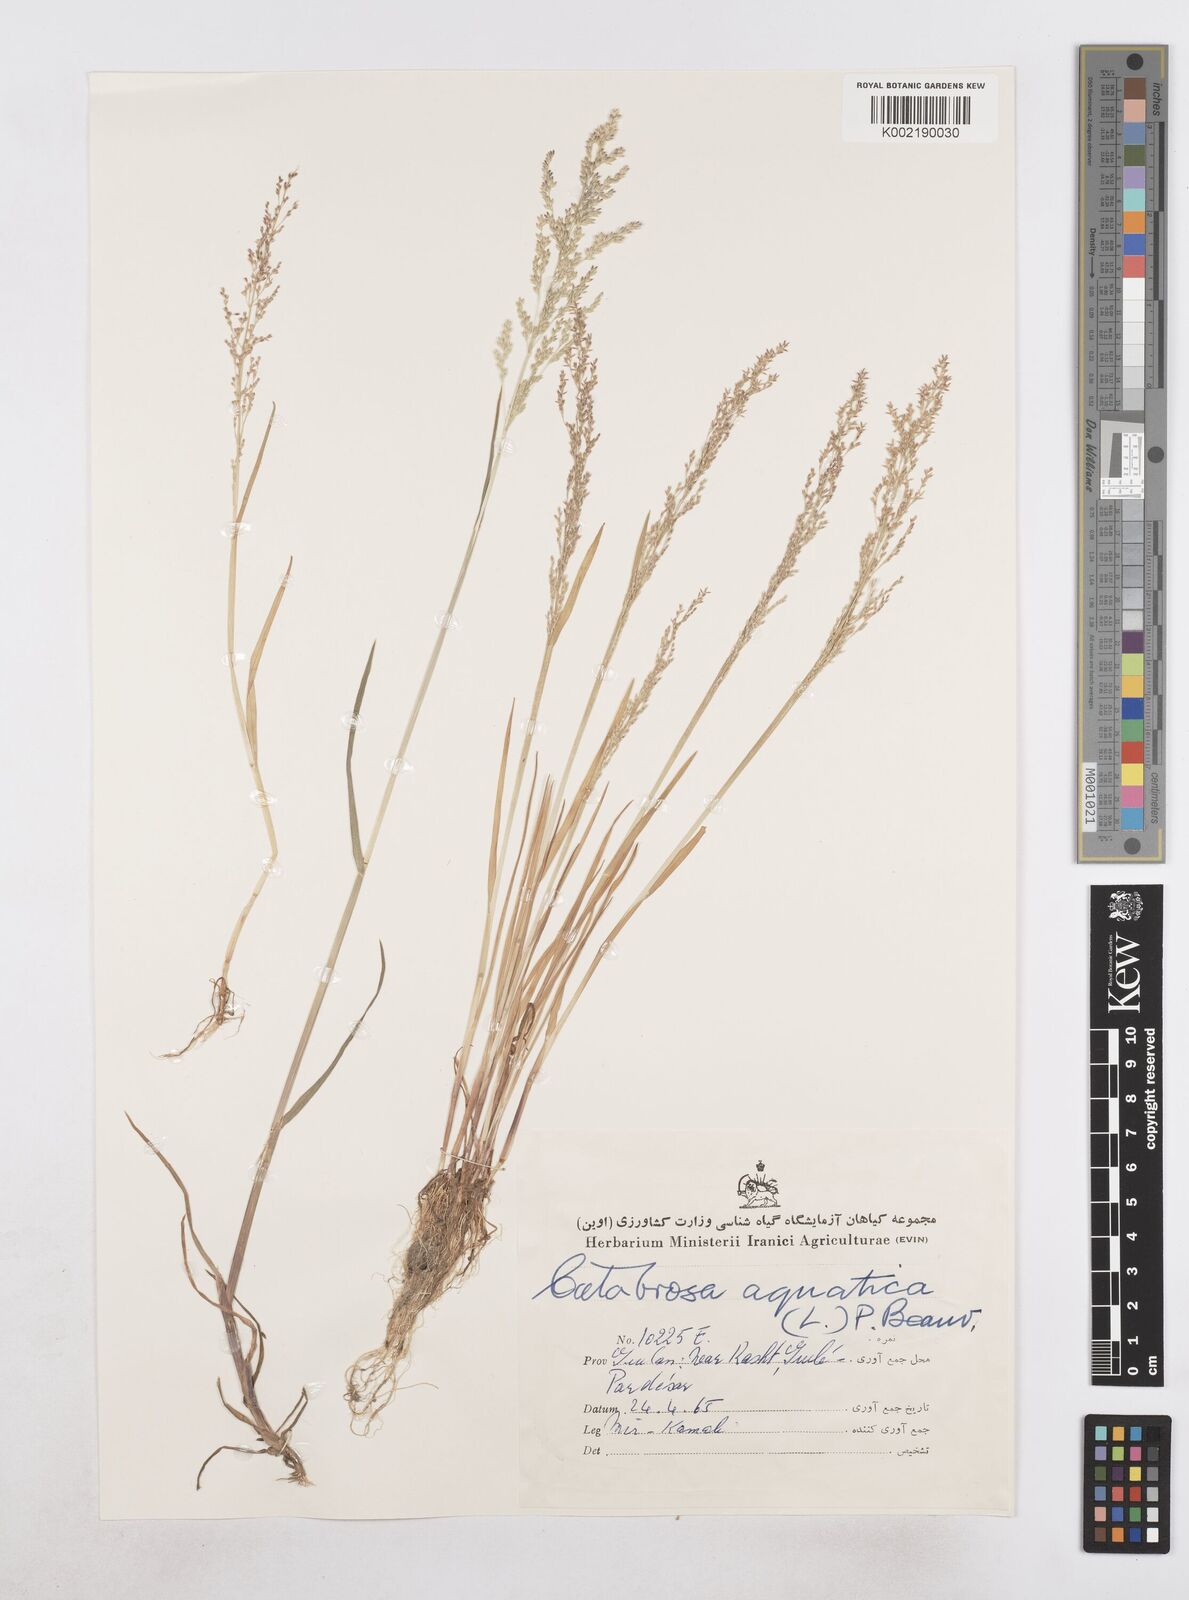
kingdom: Plantae
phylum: Tracheophyta
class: Liliopsida
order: Poales
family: Poaceae
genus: Catabrosa
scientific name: Catabrosa aquatica
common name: Whorl-grass
